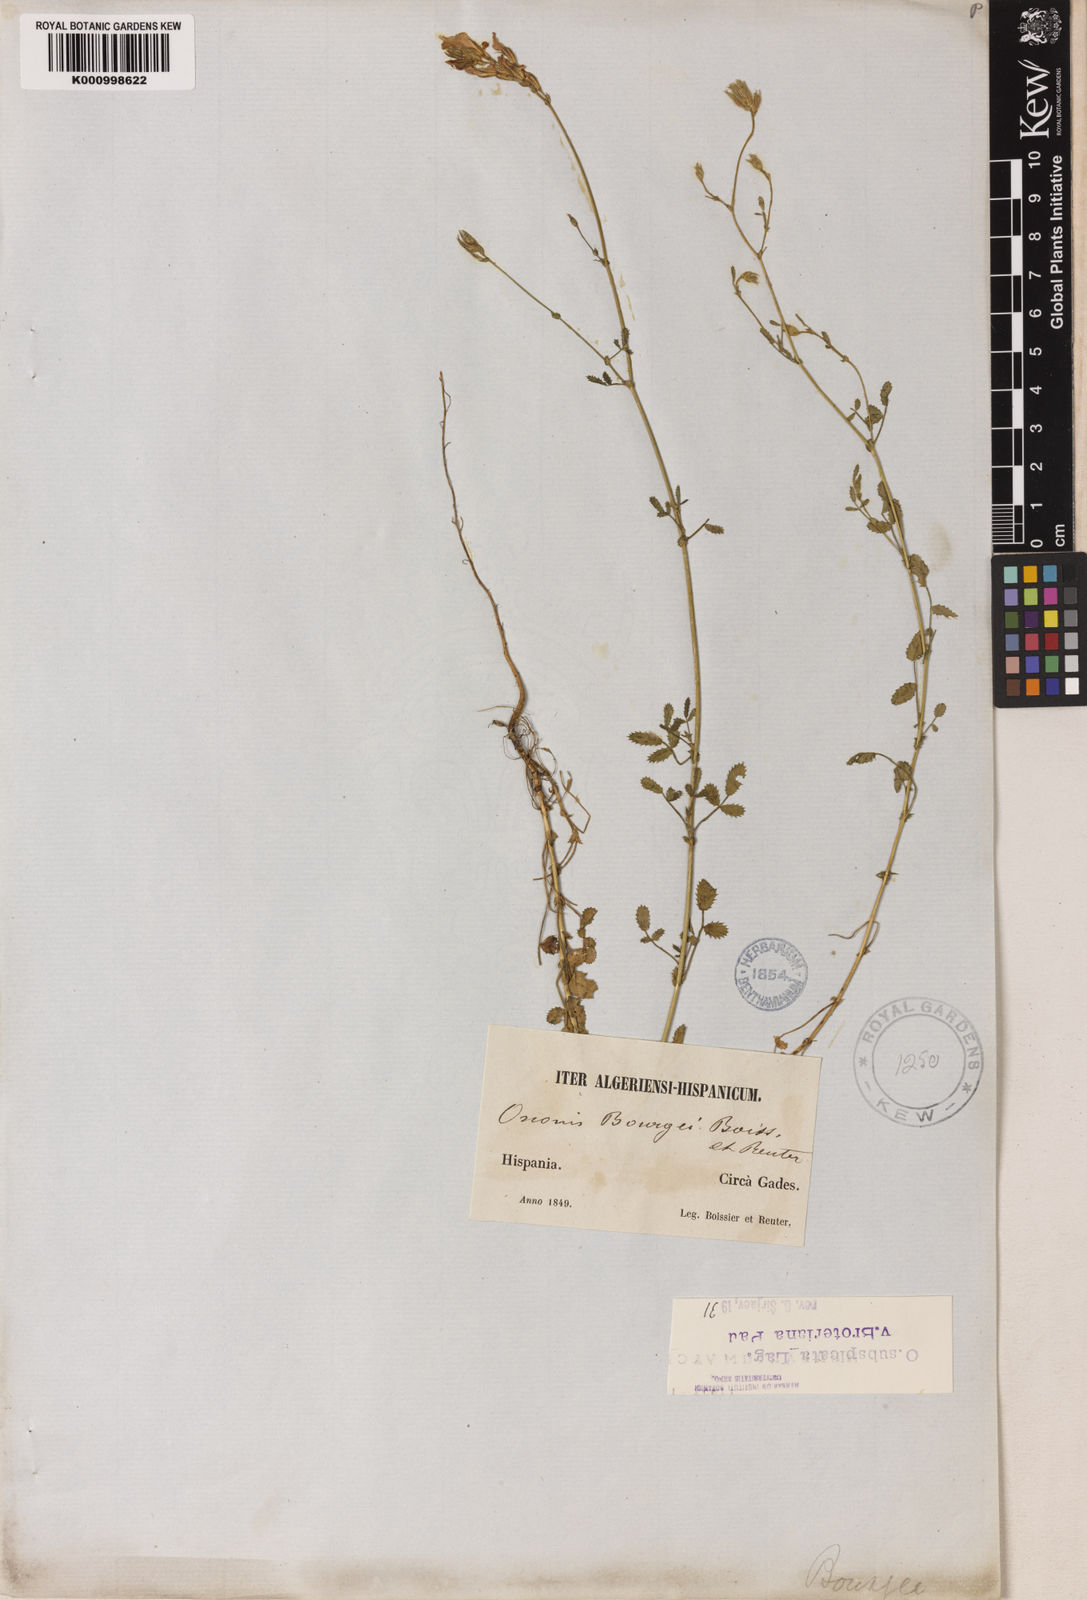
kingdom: Plantae
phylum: Tracheophyta
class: Magnoliopsida
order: Fabales
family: Fabaceae
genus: Ononis
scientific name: Ononis baetica
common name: Andalucian restharrow
